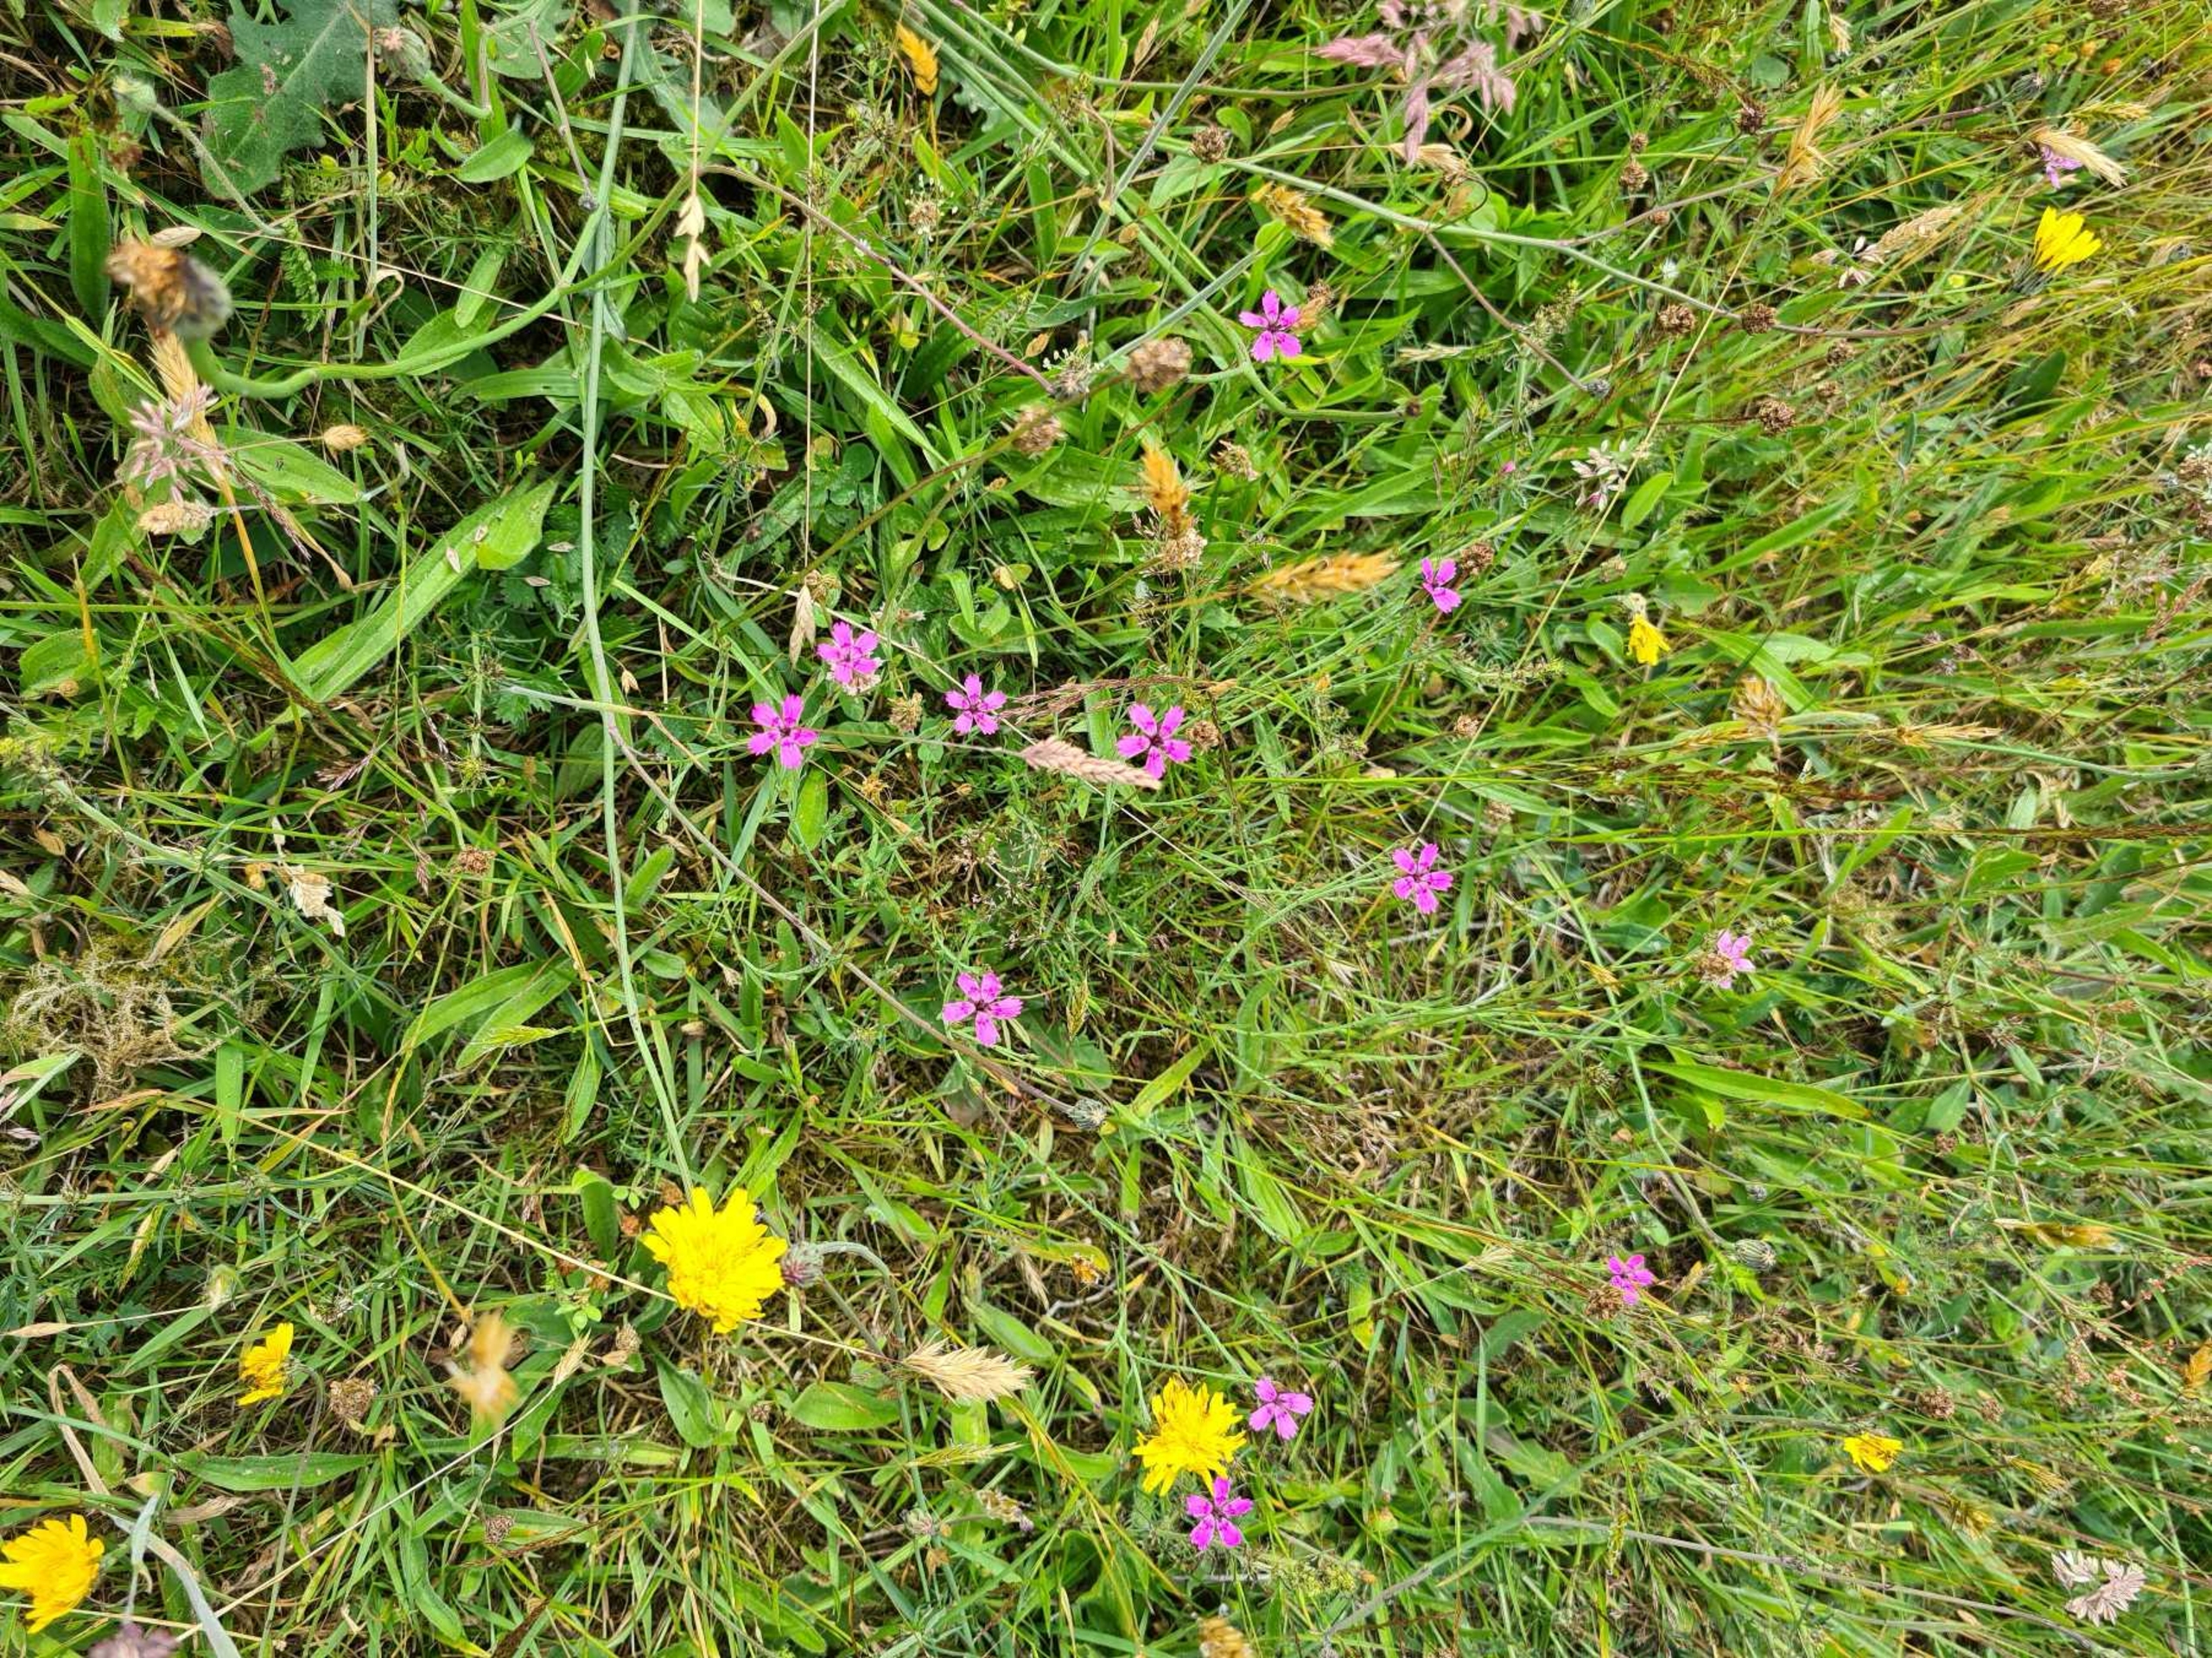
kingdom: Plantae
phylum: Tracheophyta
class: Magnoliopsida
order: Caryophyllales
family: Caryophyllaceae
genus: Dianthus
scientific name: Dianthus deltoides
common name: Bakke-nellike
